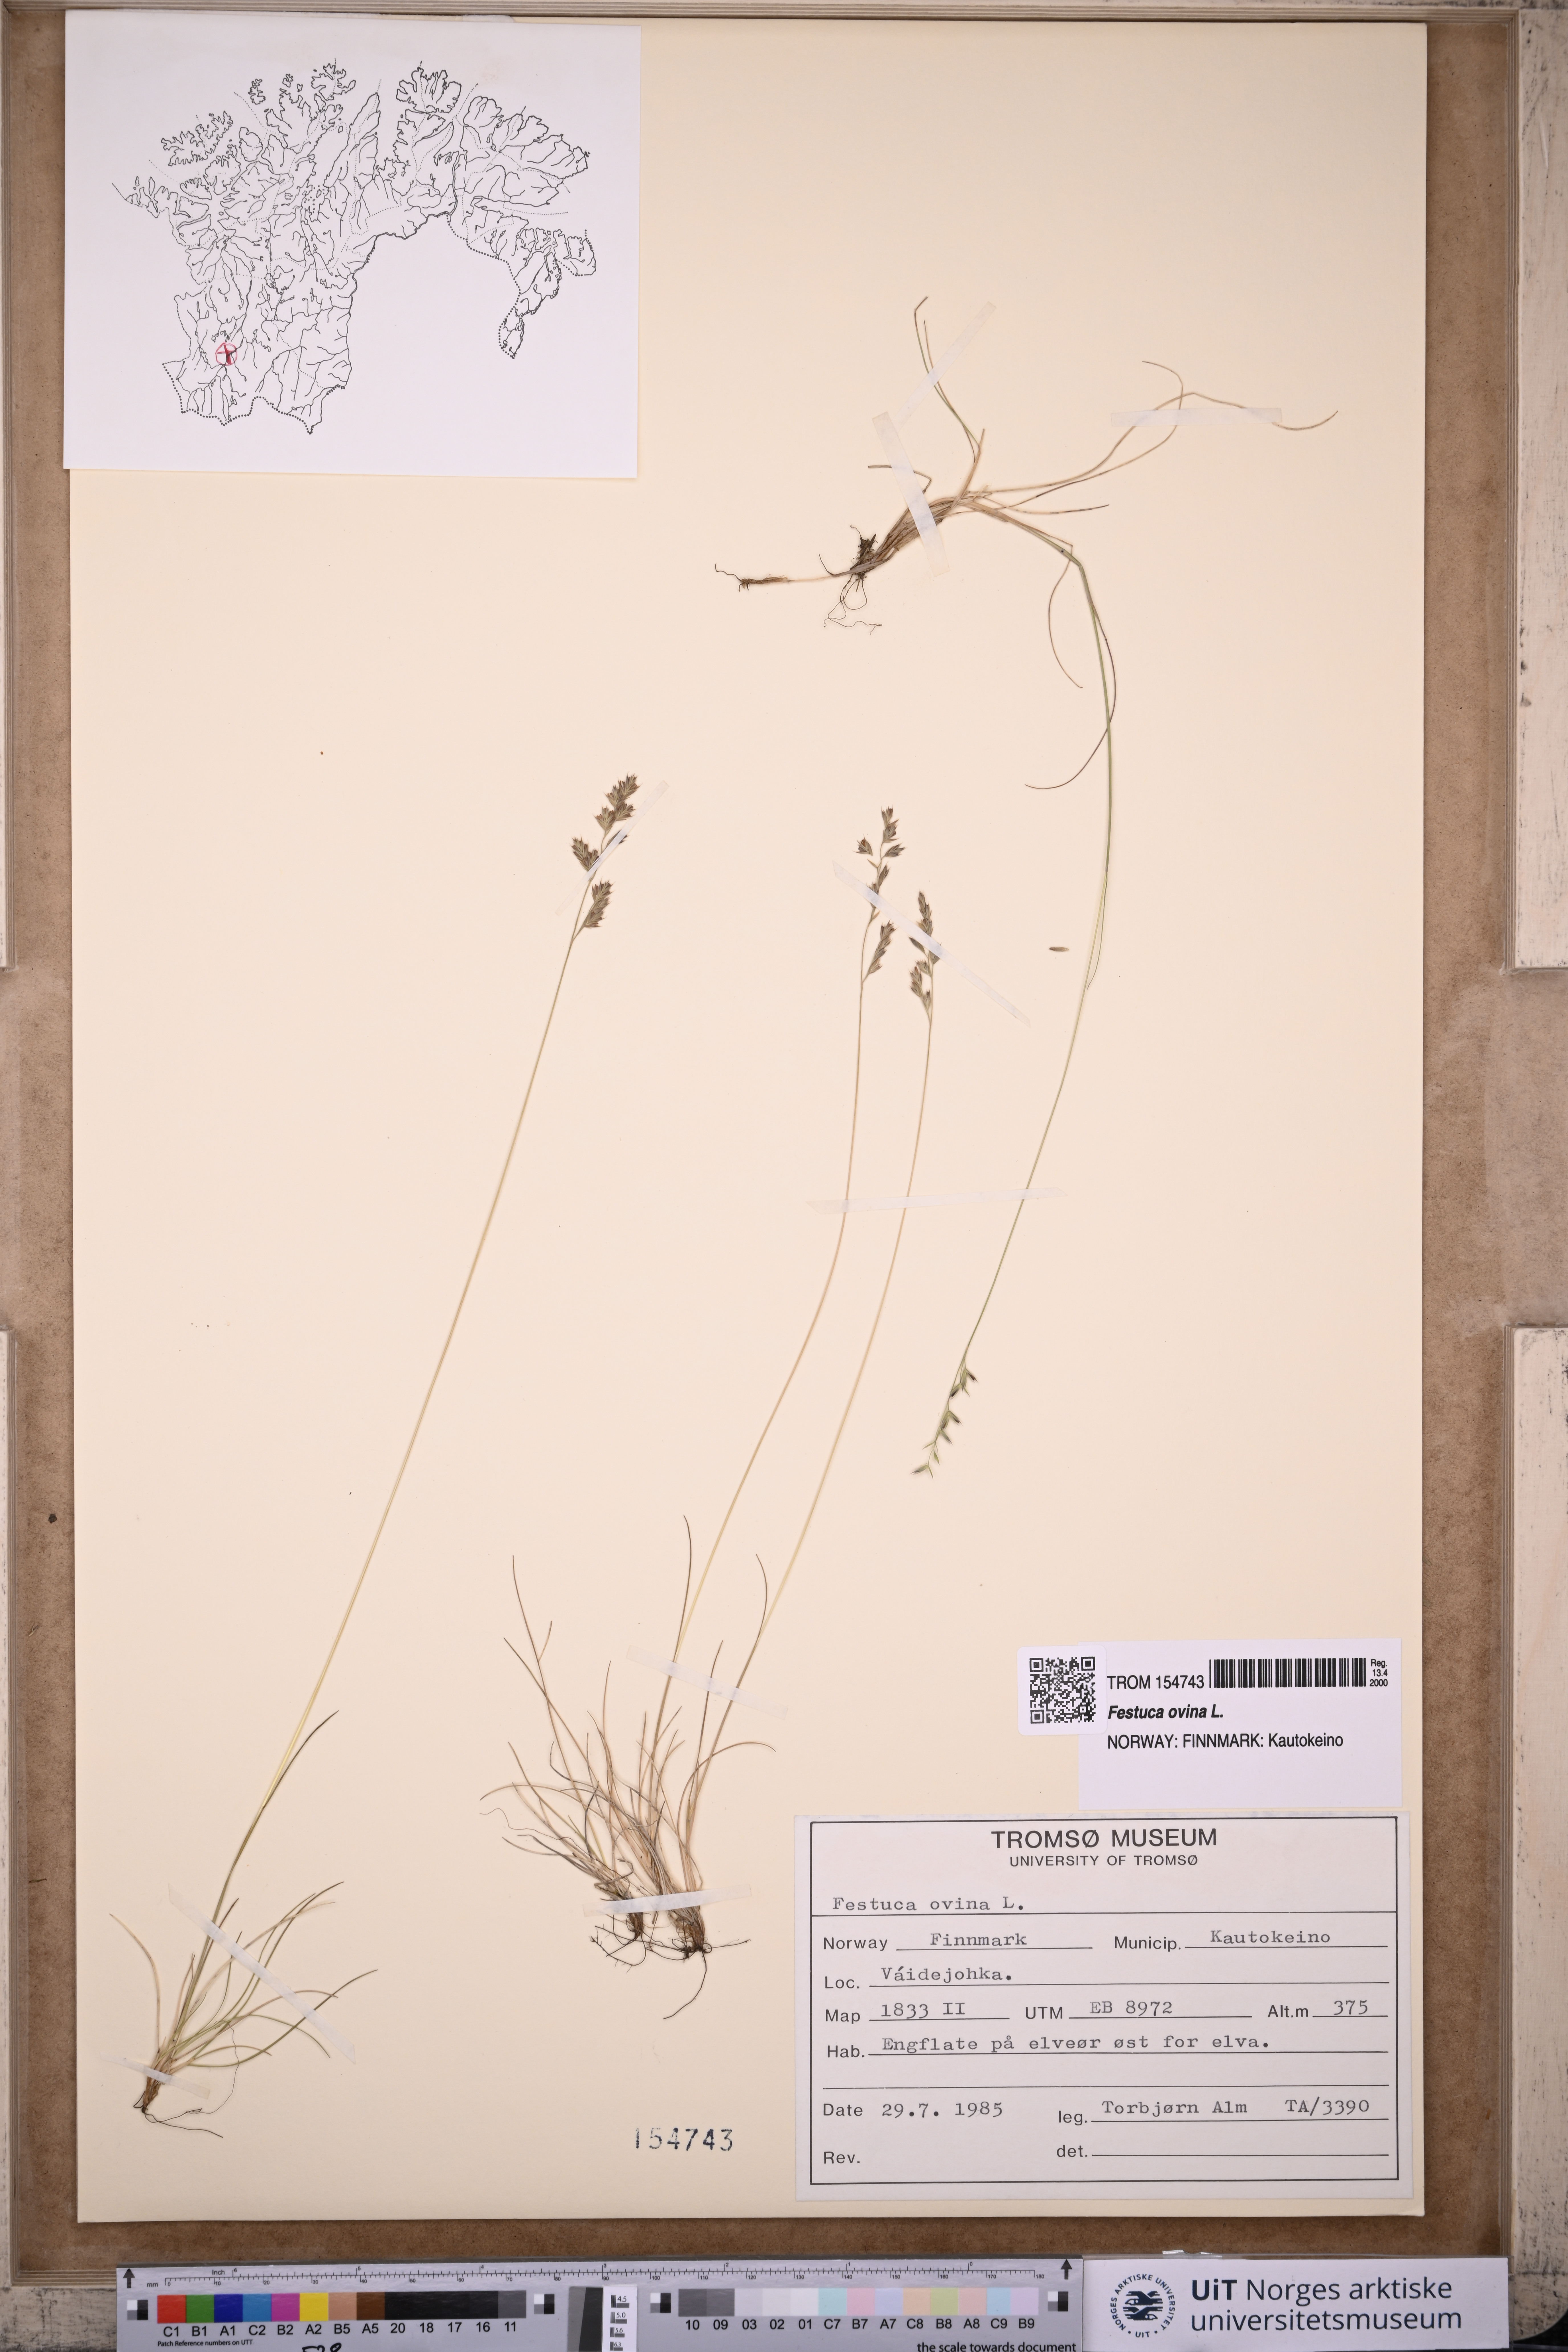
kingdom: Plantae
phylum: Tracheophyta
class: Liliopsida
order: Poales
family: Poaceae
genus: Festuca
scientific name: Festuca ovina
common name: Sheep fescue
